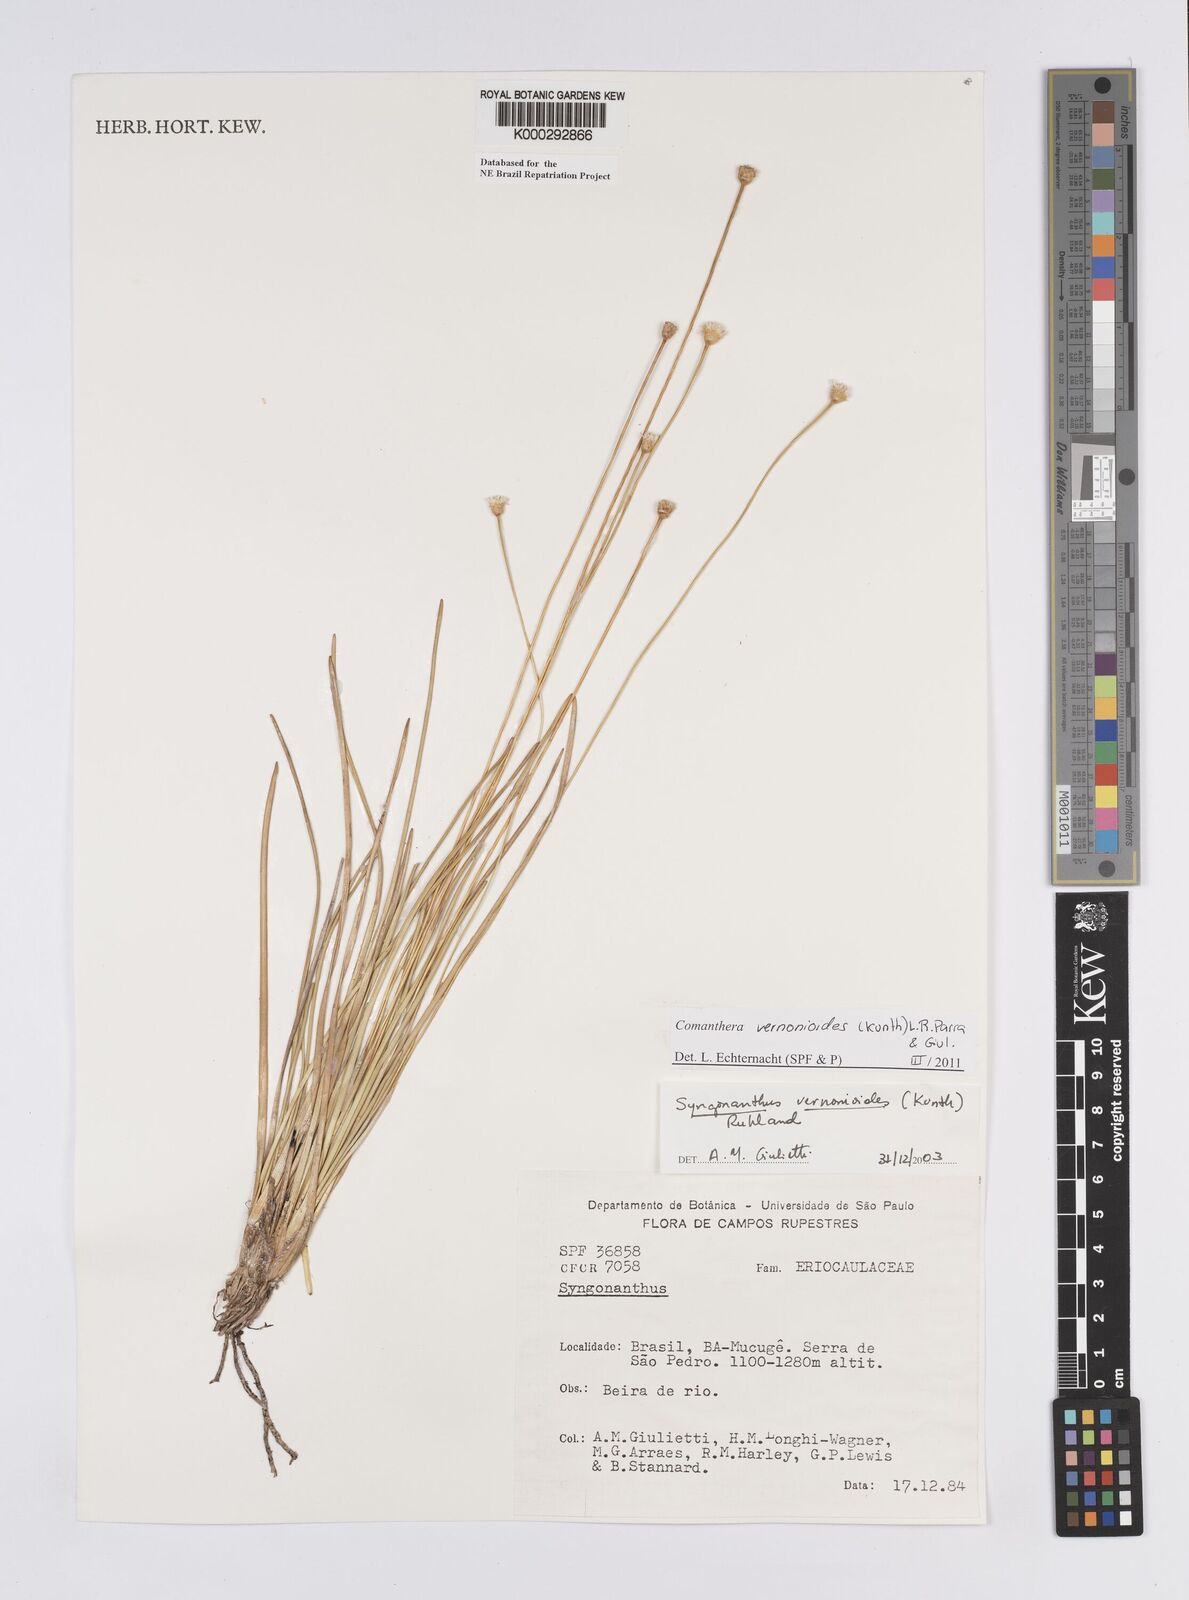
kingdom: Plantae
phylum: Tracheophyta
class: Liliopsida
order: Poales
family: Eriocaulaceae
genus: Comanthera
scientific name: Comanthera centauroides
